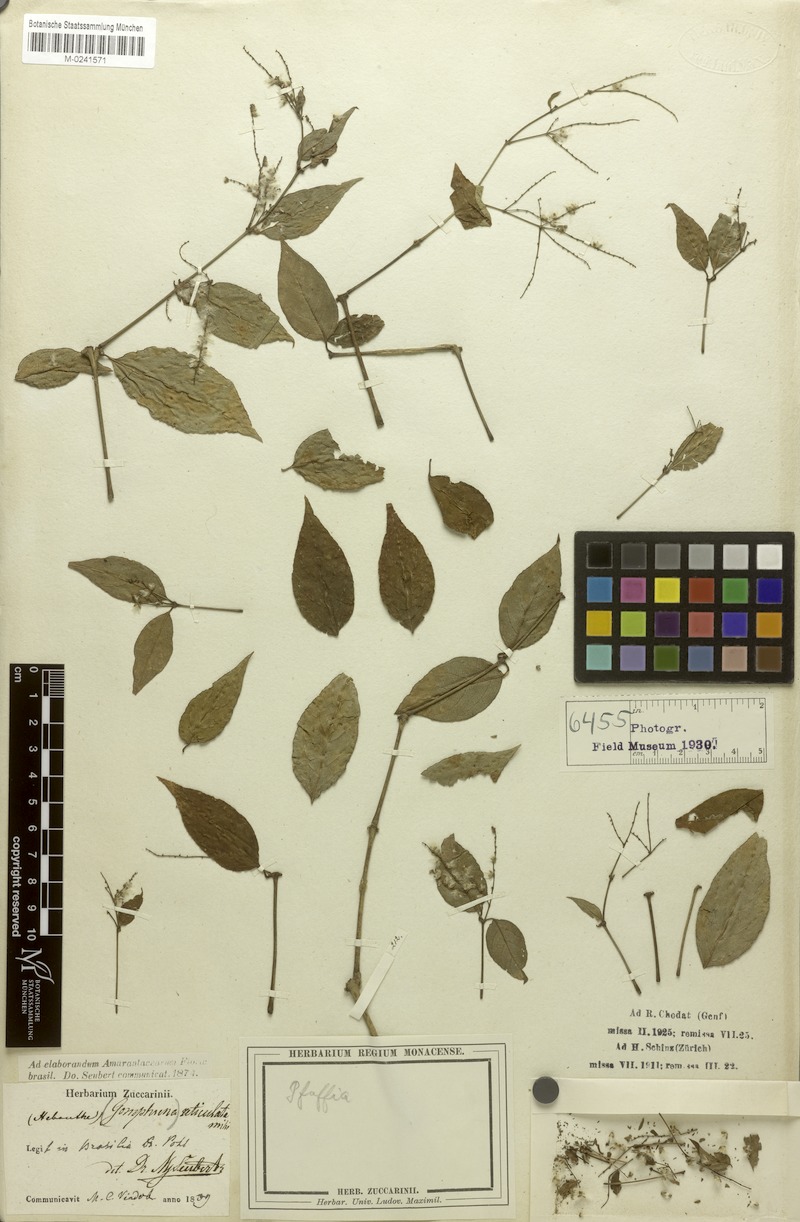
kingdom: Plantae
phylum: Tracheophyta
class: Magnoliopsida
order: Caryophyllales
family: Amaranthaceae
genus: Hebanthe
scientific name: Hebanthe reticulata
